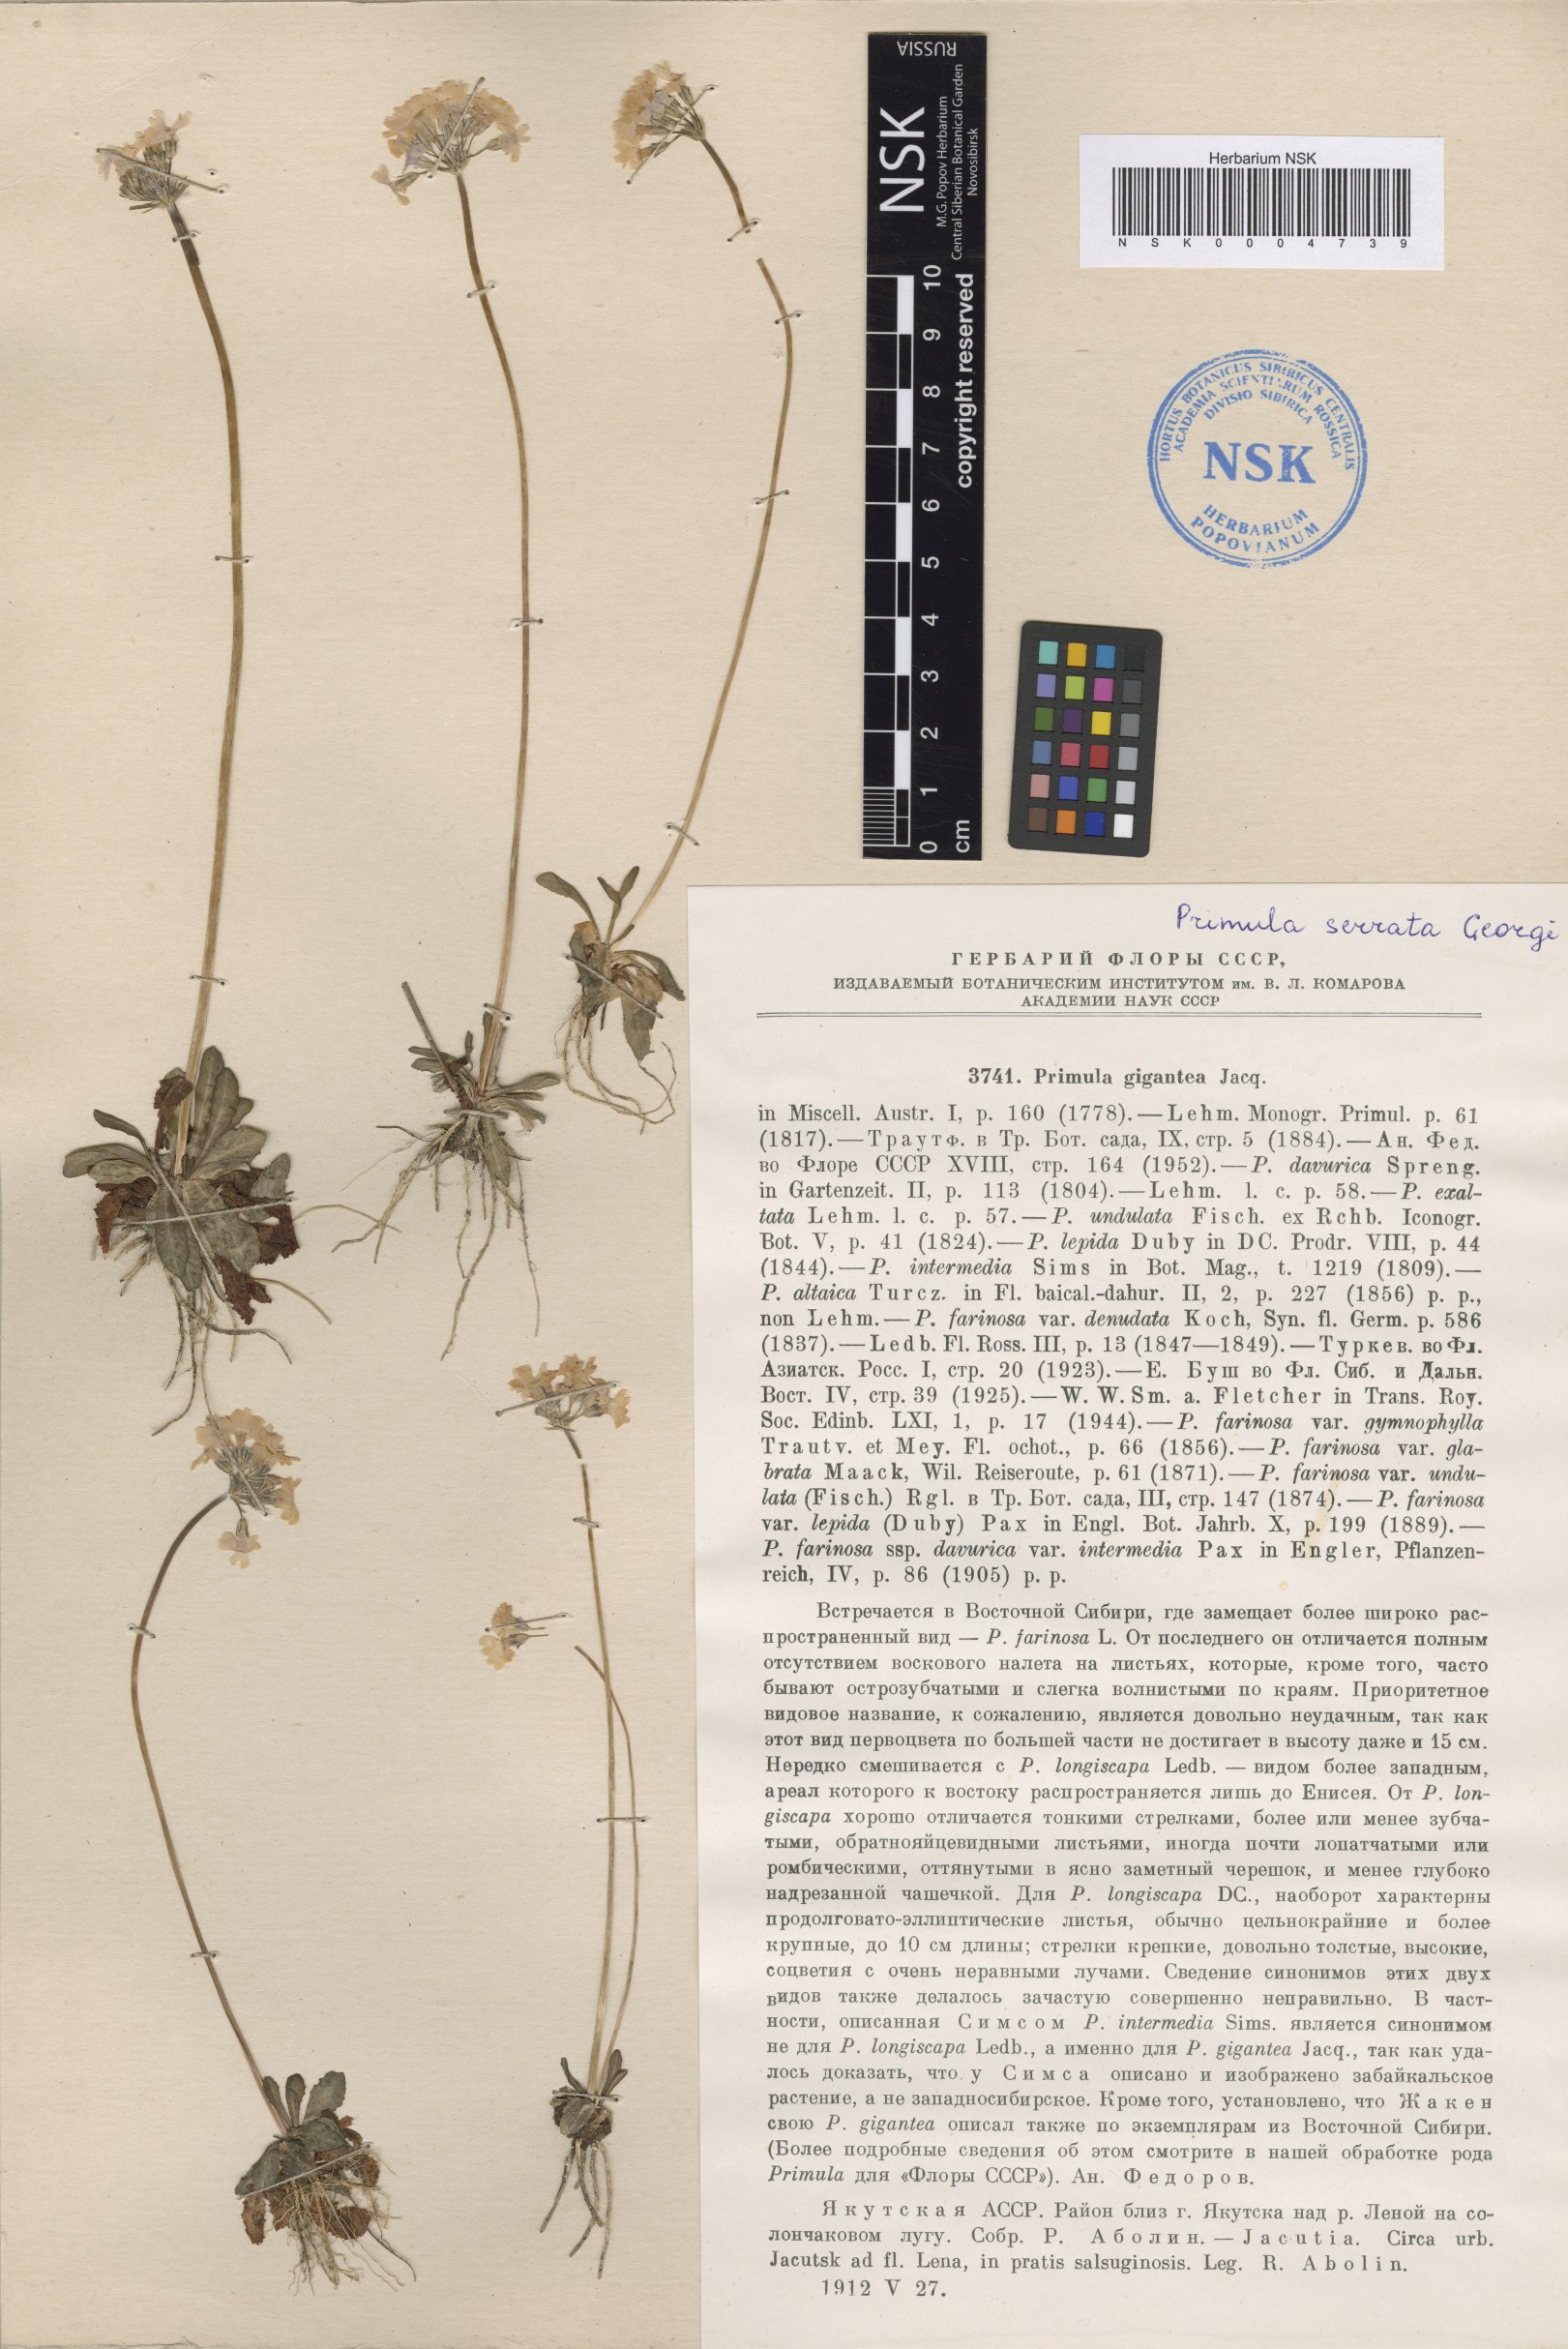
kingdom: Plantae
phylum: Tracheophyta
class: Magnoliopsida
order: Ericales
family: Primulaceae
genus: Primula
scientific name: Primula serrata
